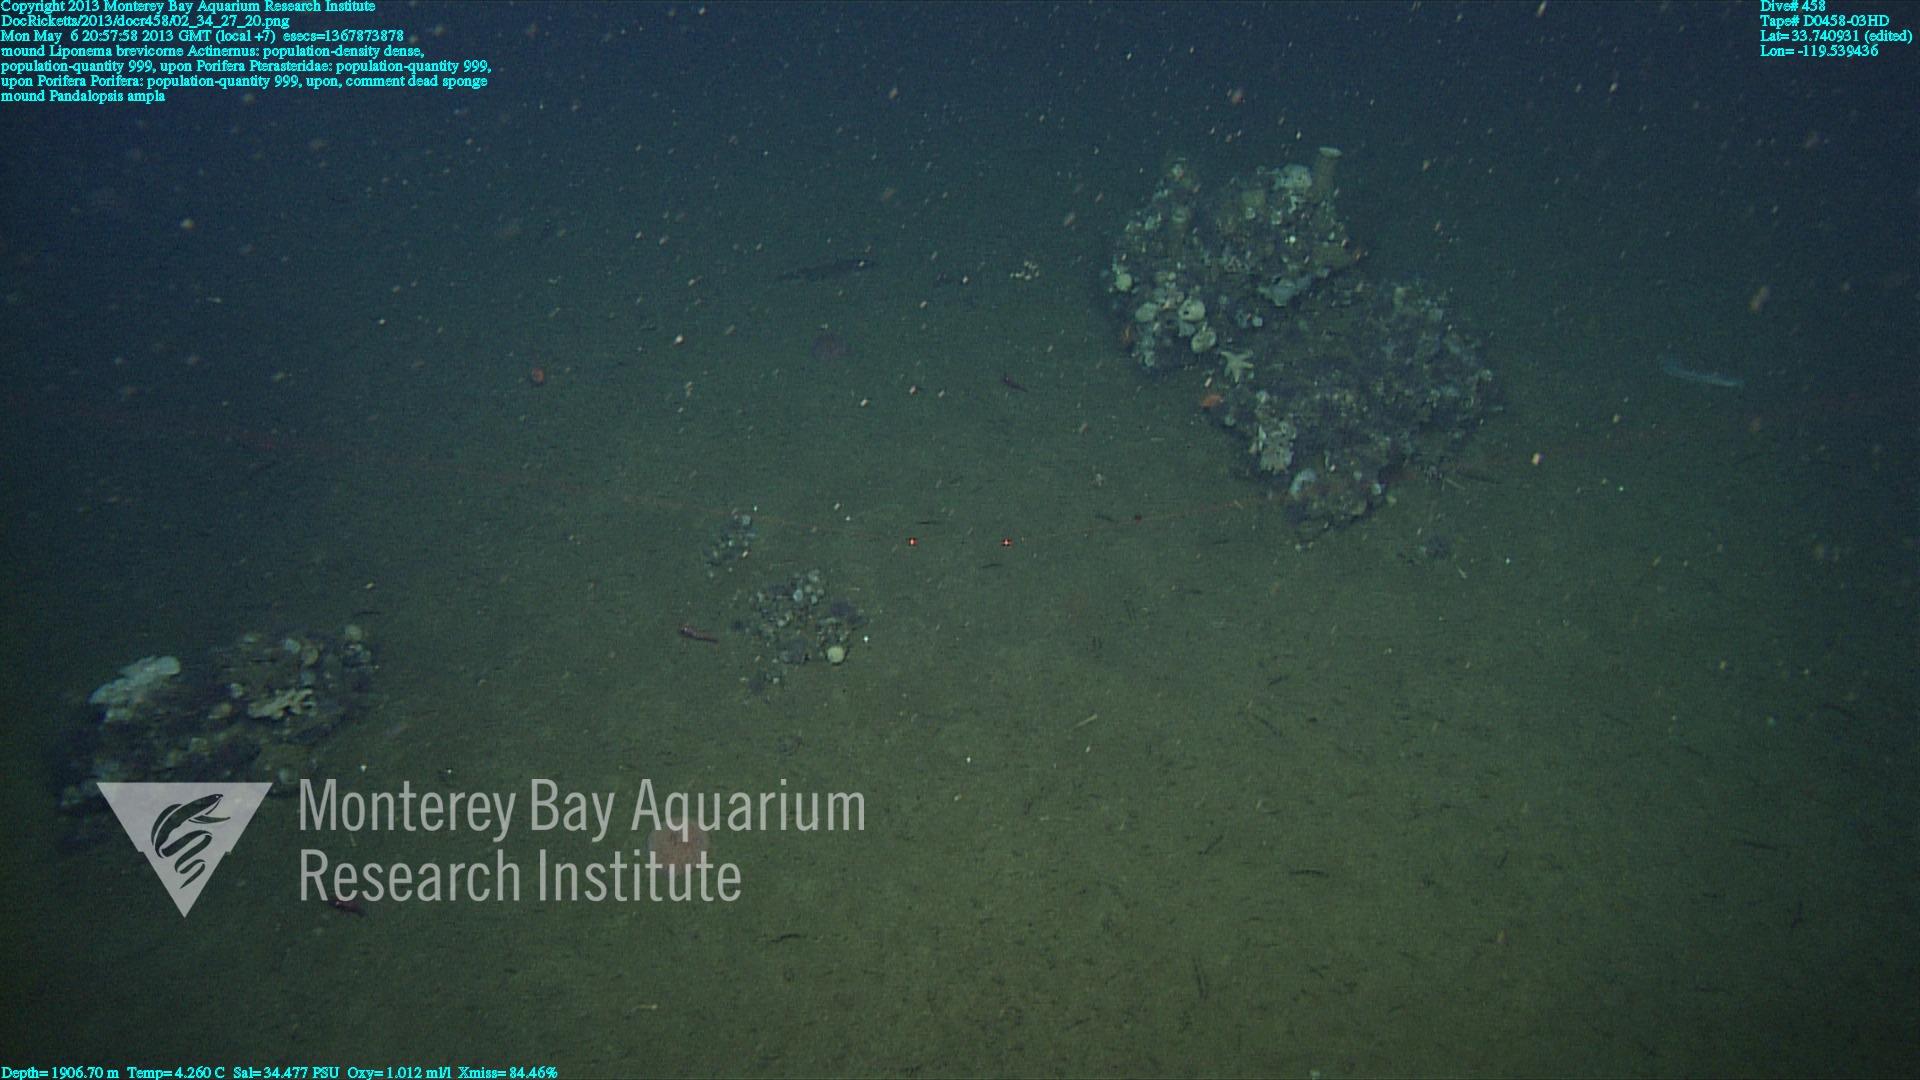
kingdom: Animalia
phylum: Porifera
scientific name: Porifera
